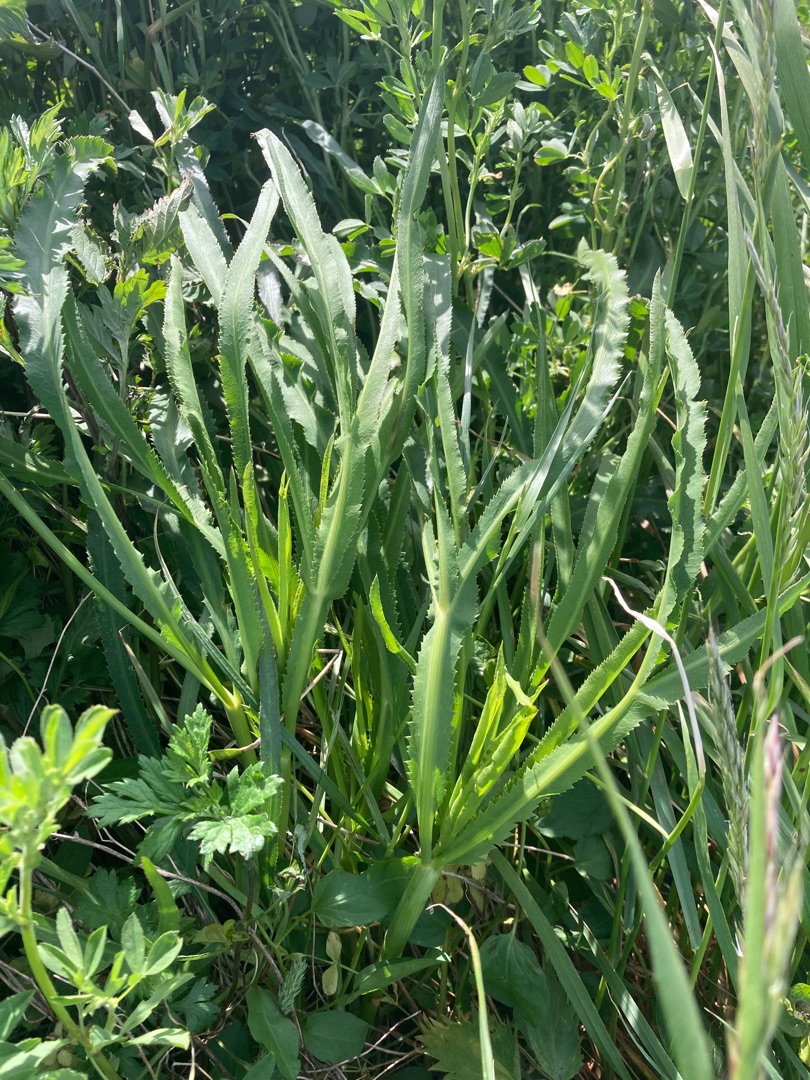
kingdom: Plantae
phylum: Tracheophyta
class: Magnoliopsida
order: Apiales
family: Apiaceae
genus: Falcaria
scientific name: Falcaria vulgaris
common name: Seglblad
